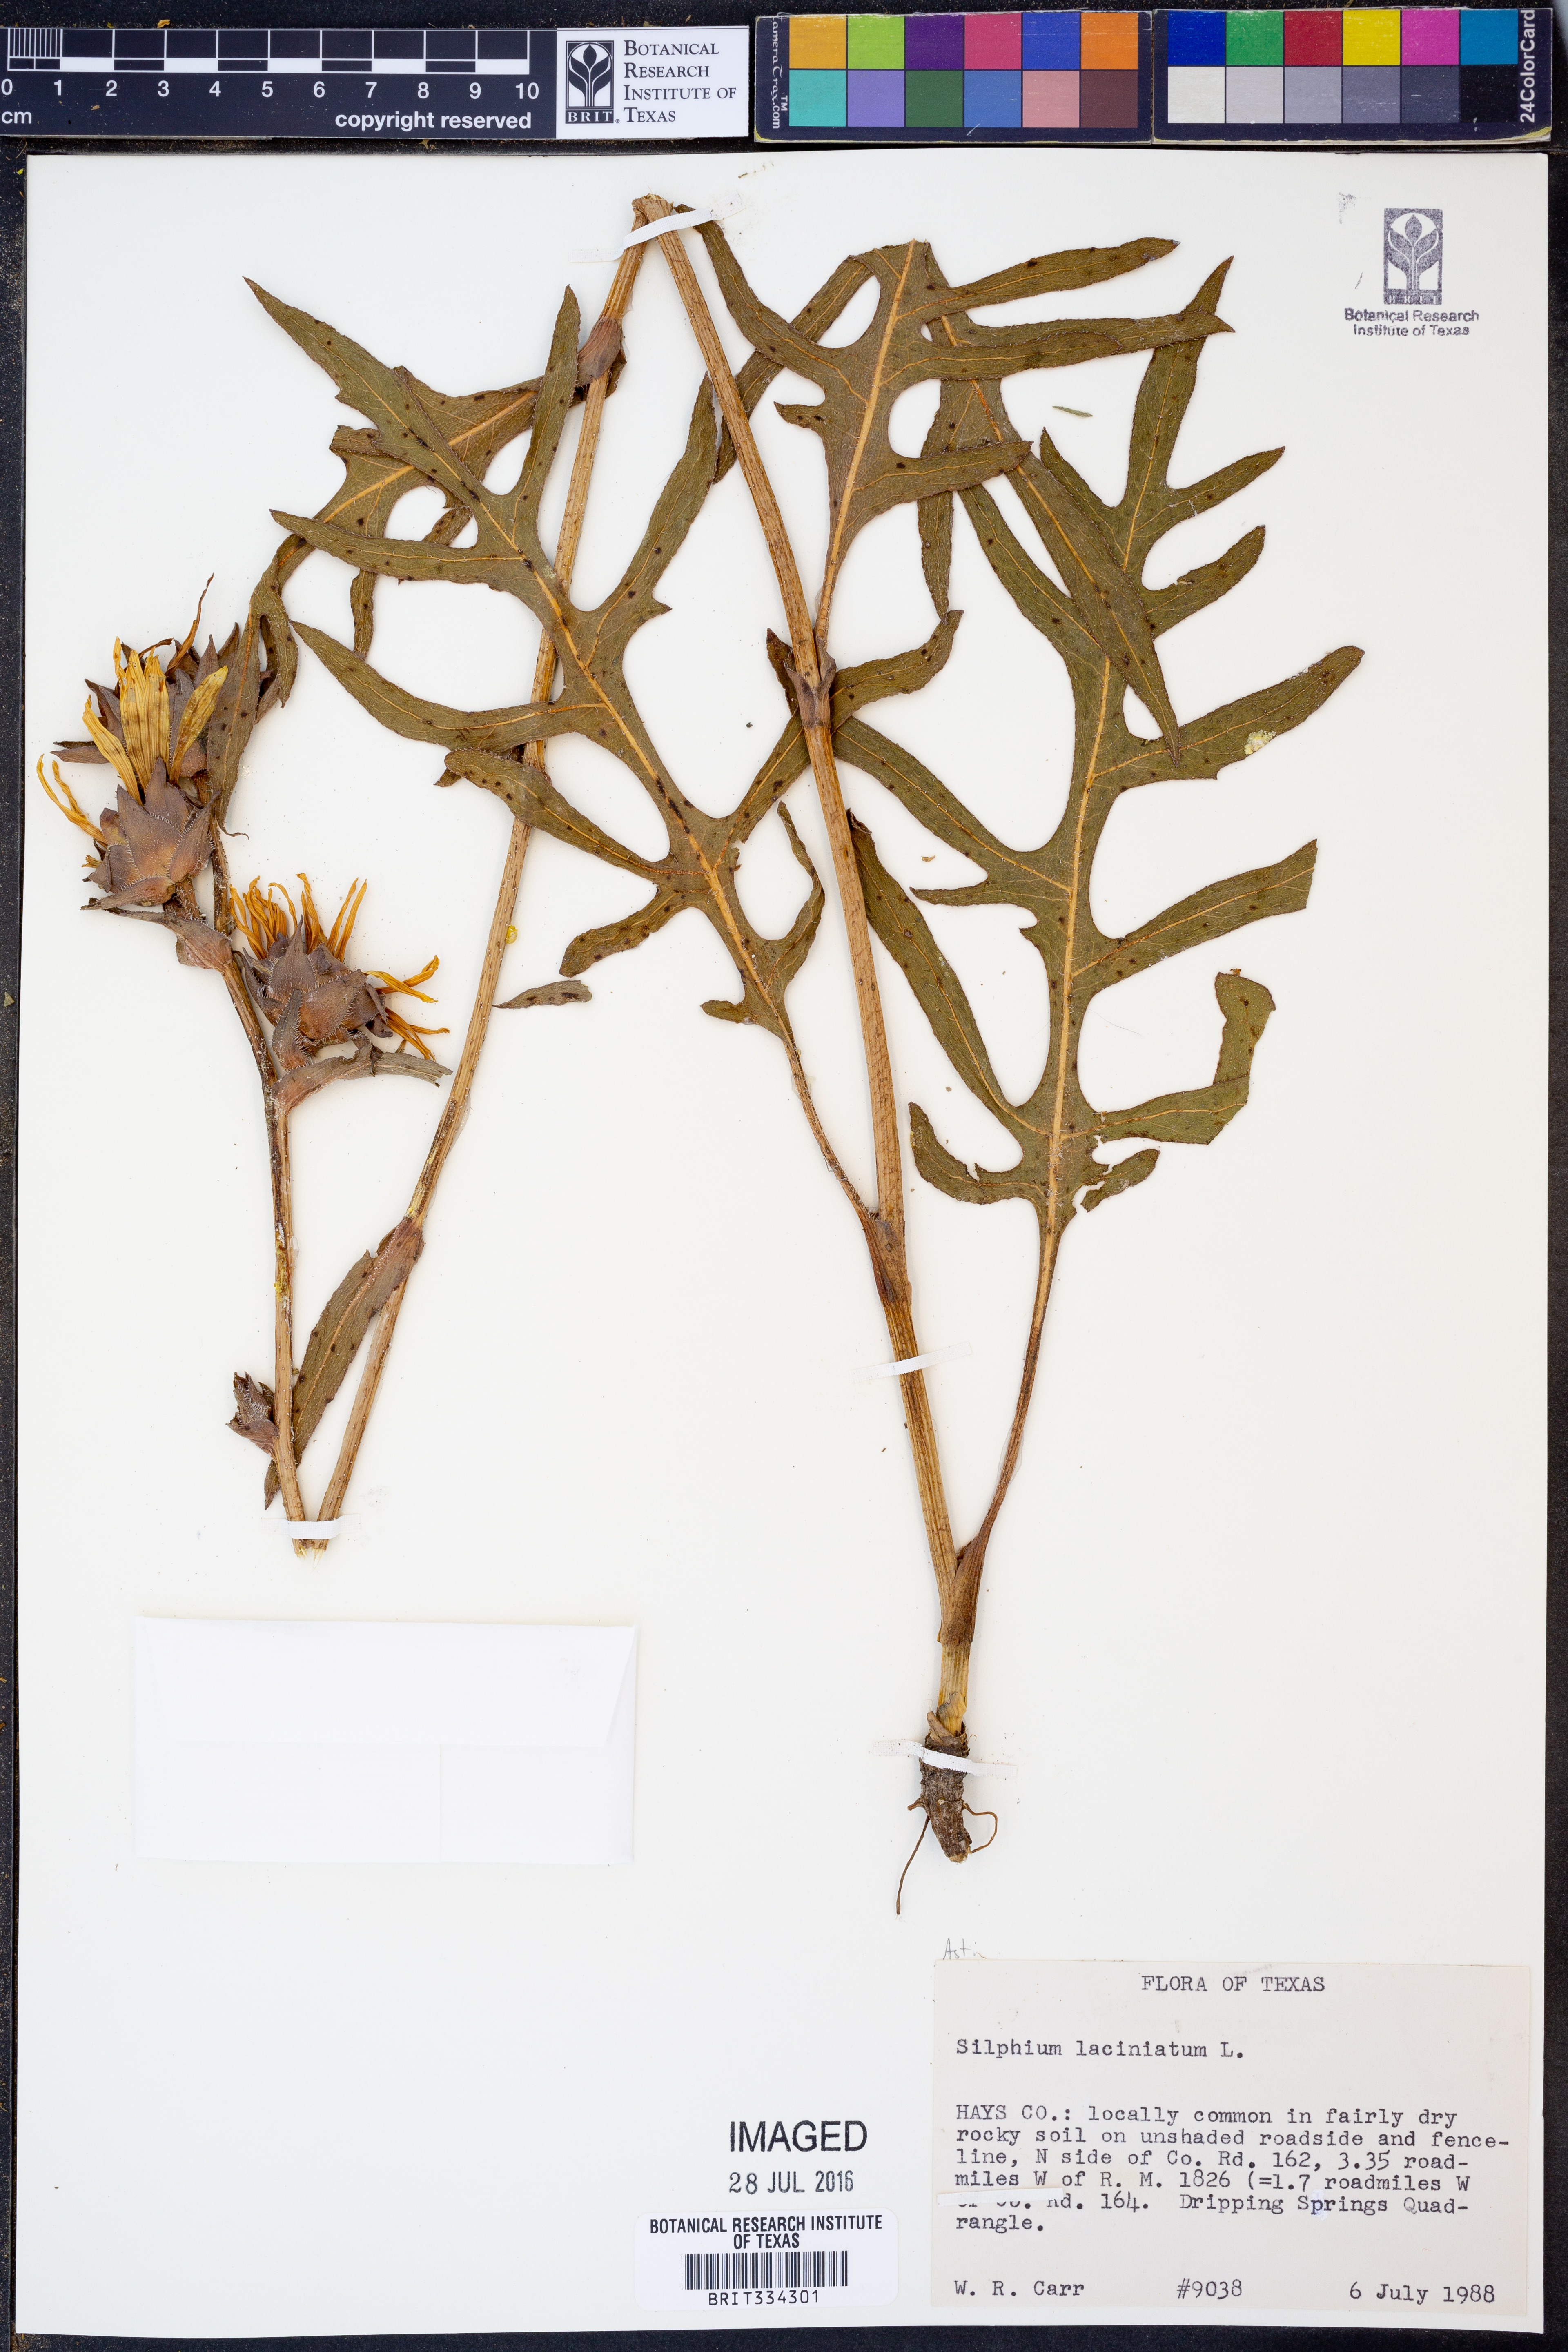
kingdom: Plantae
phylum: Tracheophyta
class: Magnoliopsida
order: Asterales
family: Asteraceae
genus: Silphium
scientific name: Silphium laciniatum
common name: Polarplant
